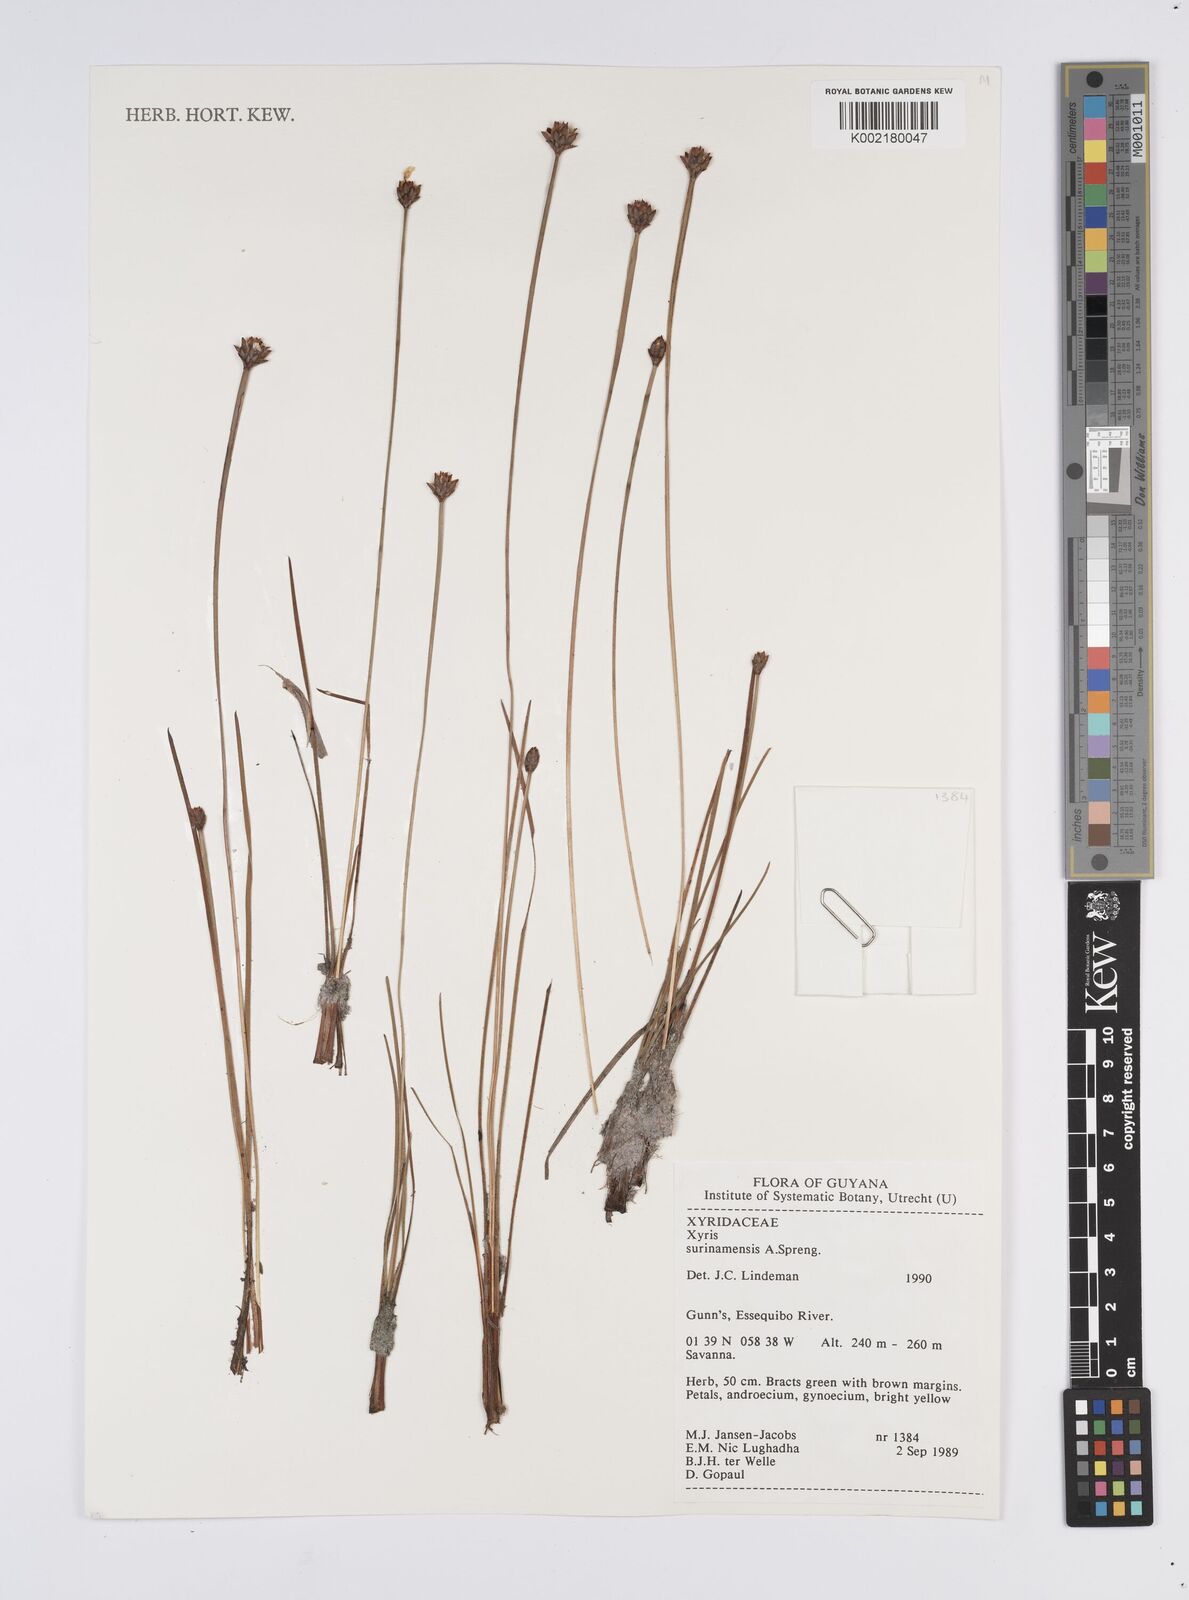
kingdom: Plantae
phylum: Tracheophyta
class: Liliopsida
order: Poales
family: Xyridaceae
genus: Xyris
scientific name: Xyris surinamensis
